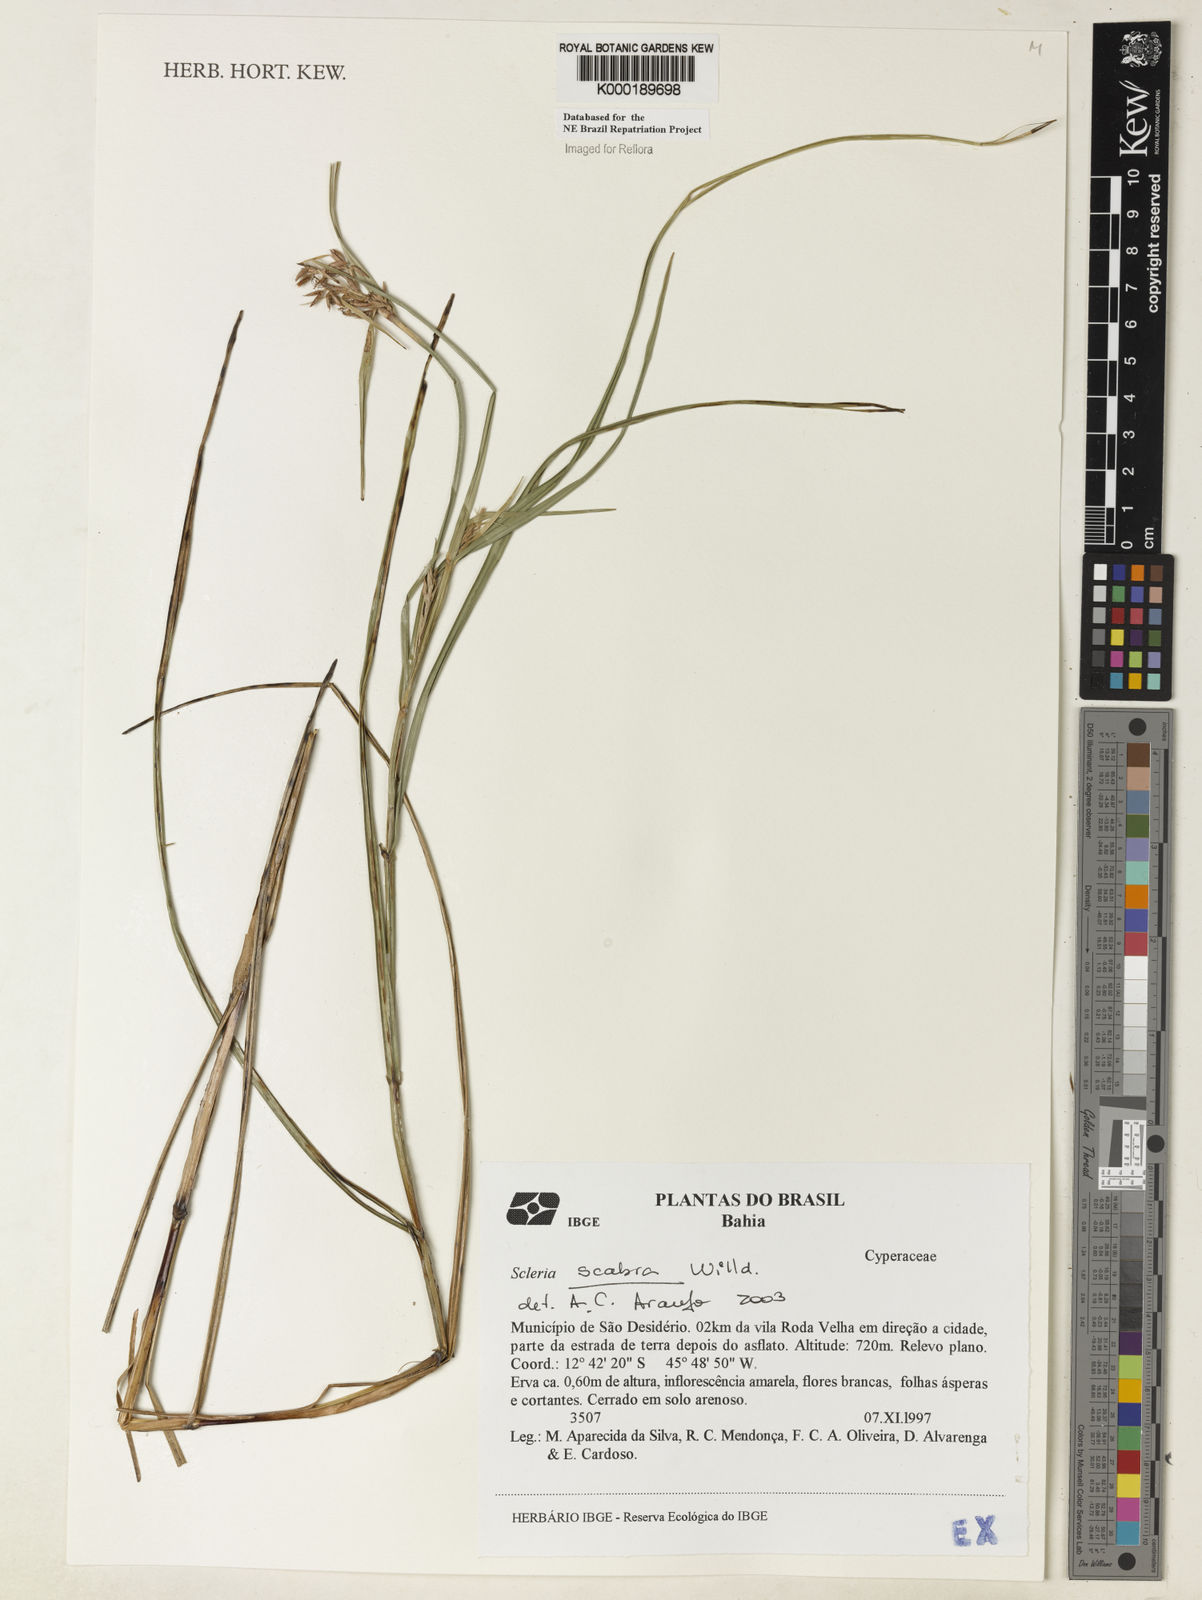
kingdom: Plantae
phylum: Tracheophyta
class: Liliopsida
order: Poales
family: Cyperaceae
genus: Scleria
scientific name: Scleria scabra
